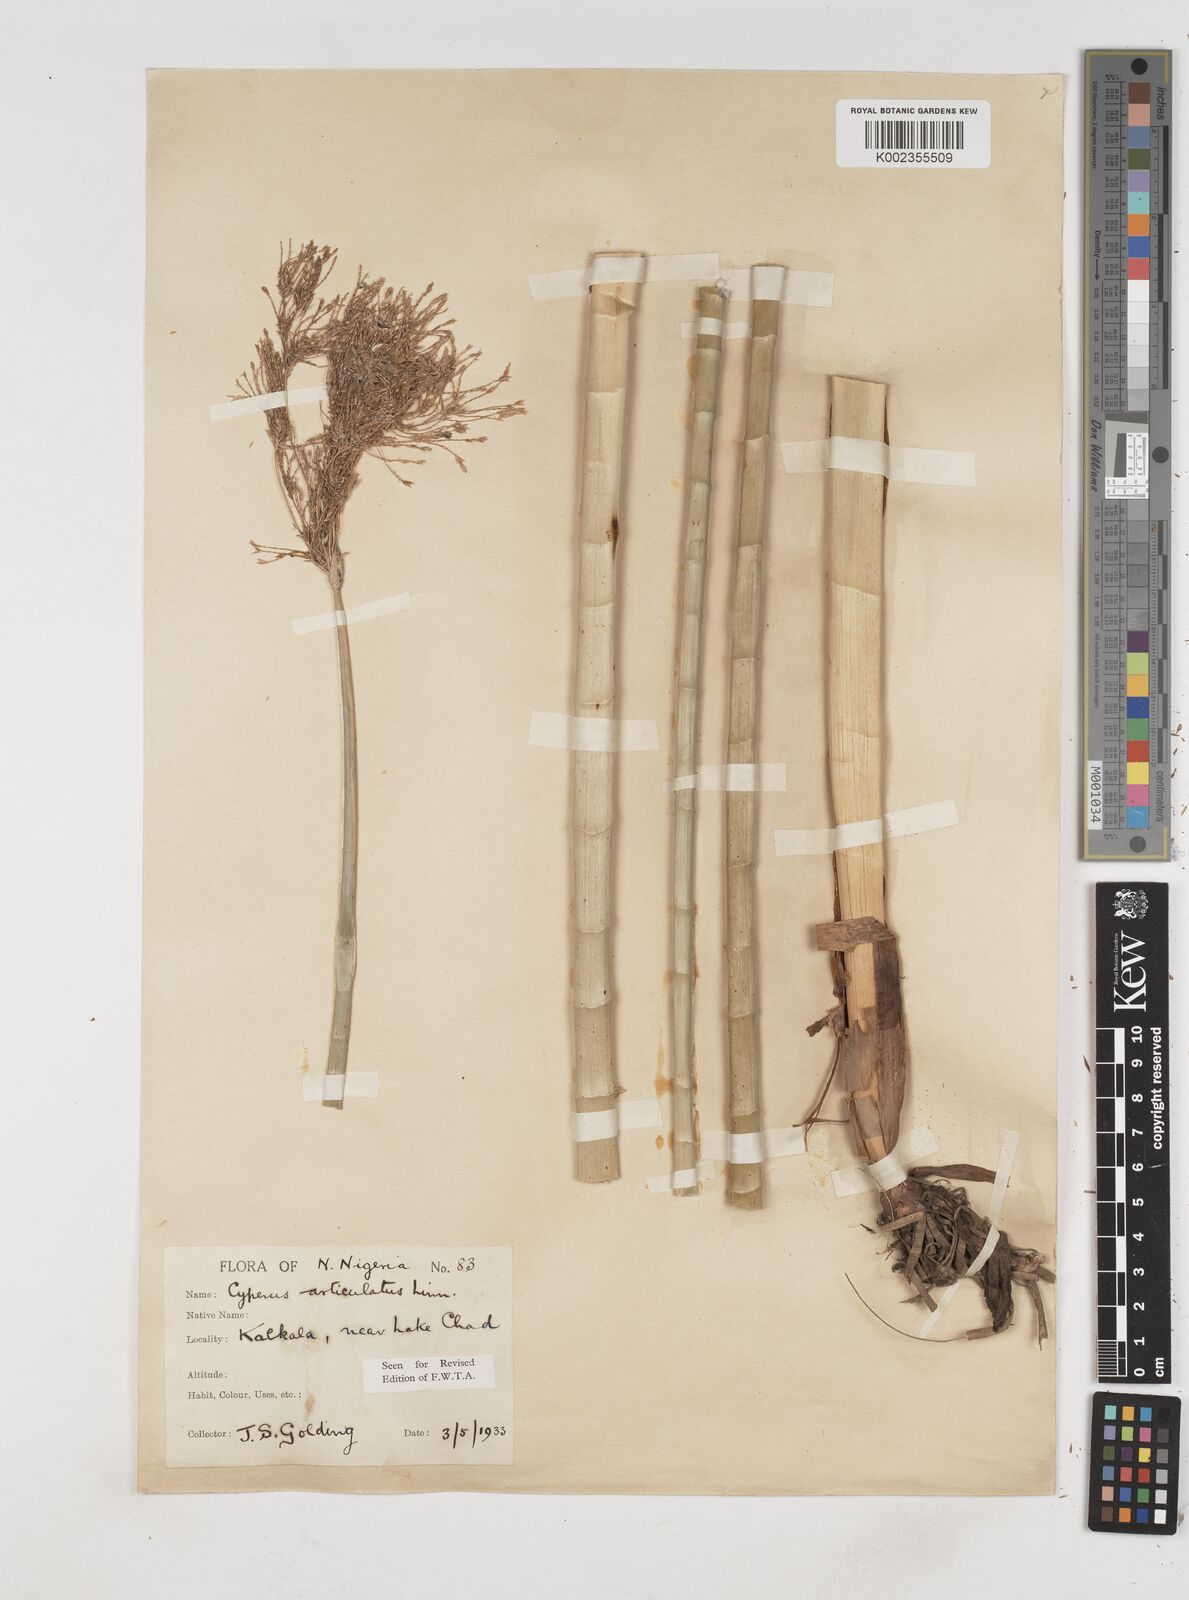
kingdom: Plantae
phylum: Tracheophyta
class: Liliopsida
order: Poales
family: Cyperaceae
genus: Cyperus
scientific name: Cyperus articulatus
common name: Jointed flatsedge
